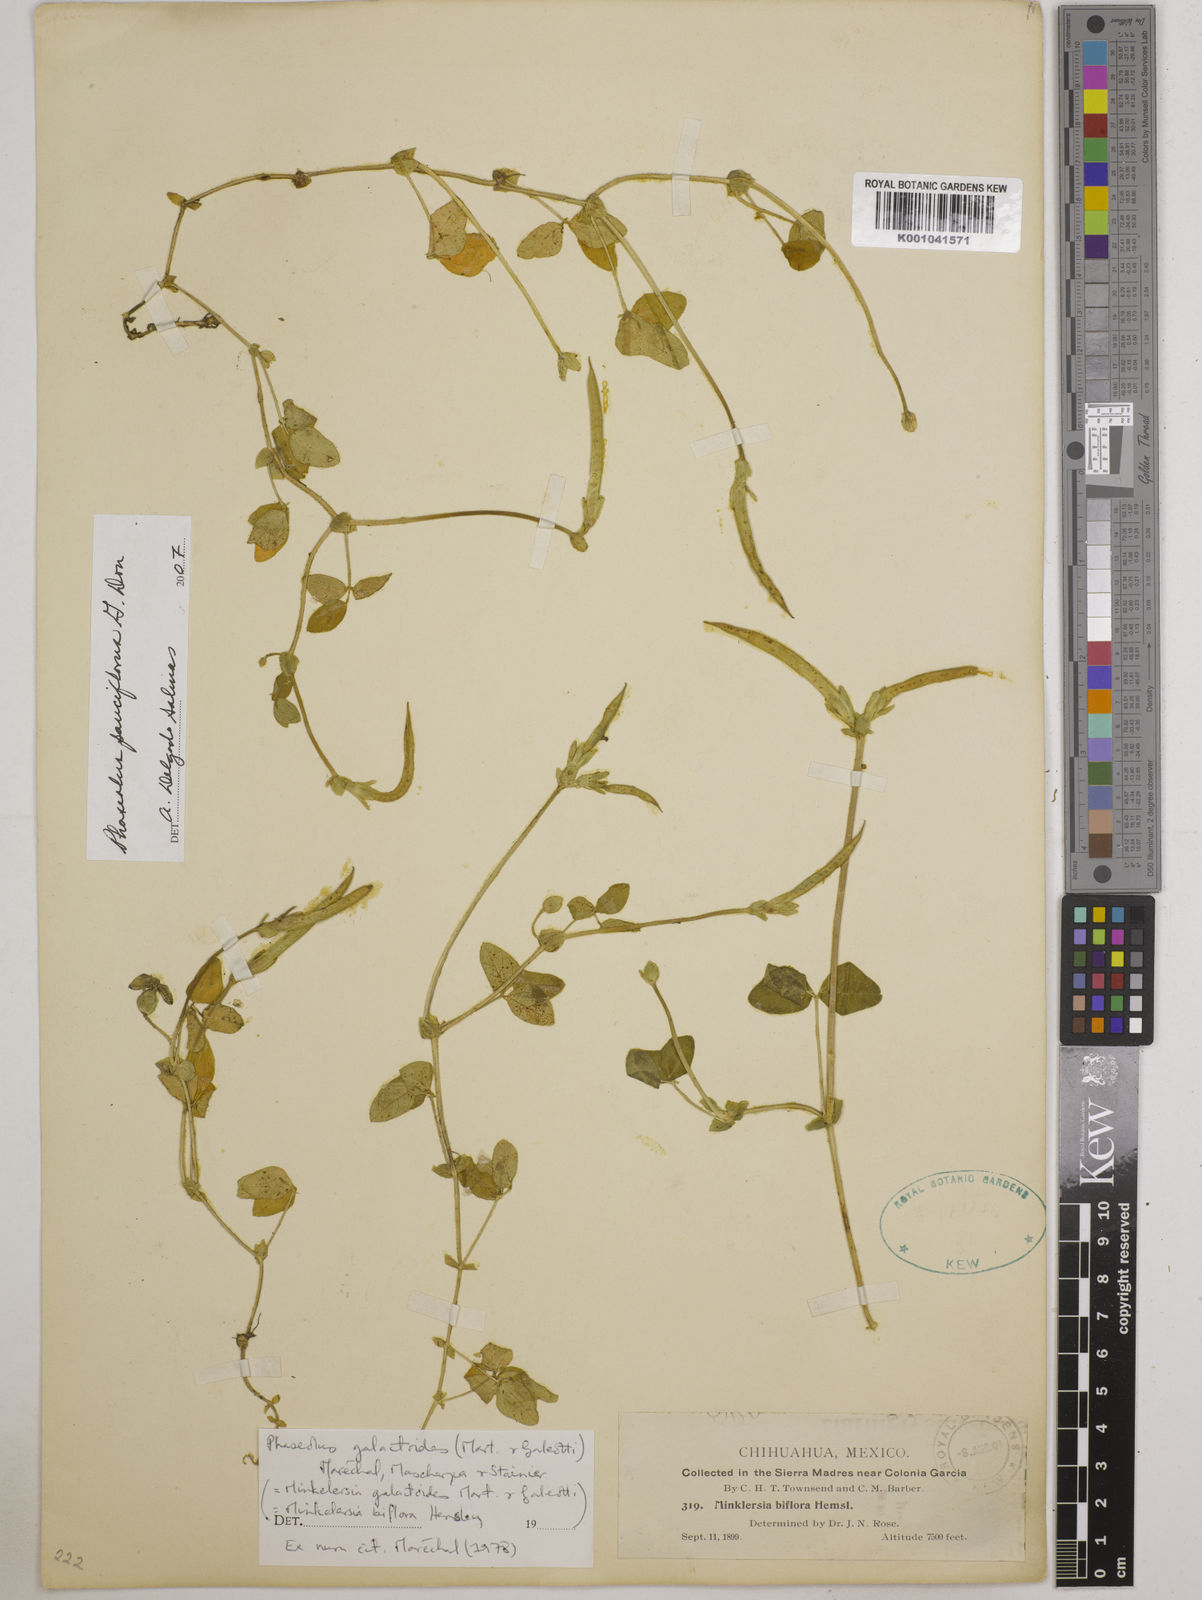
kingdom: Plantae
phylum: Tracheophyta
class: Magnoliopsida
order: Fabales
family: Fabaceae
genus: Phaseolus
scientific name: Phaseolus
